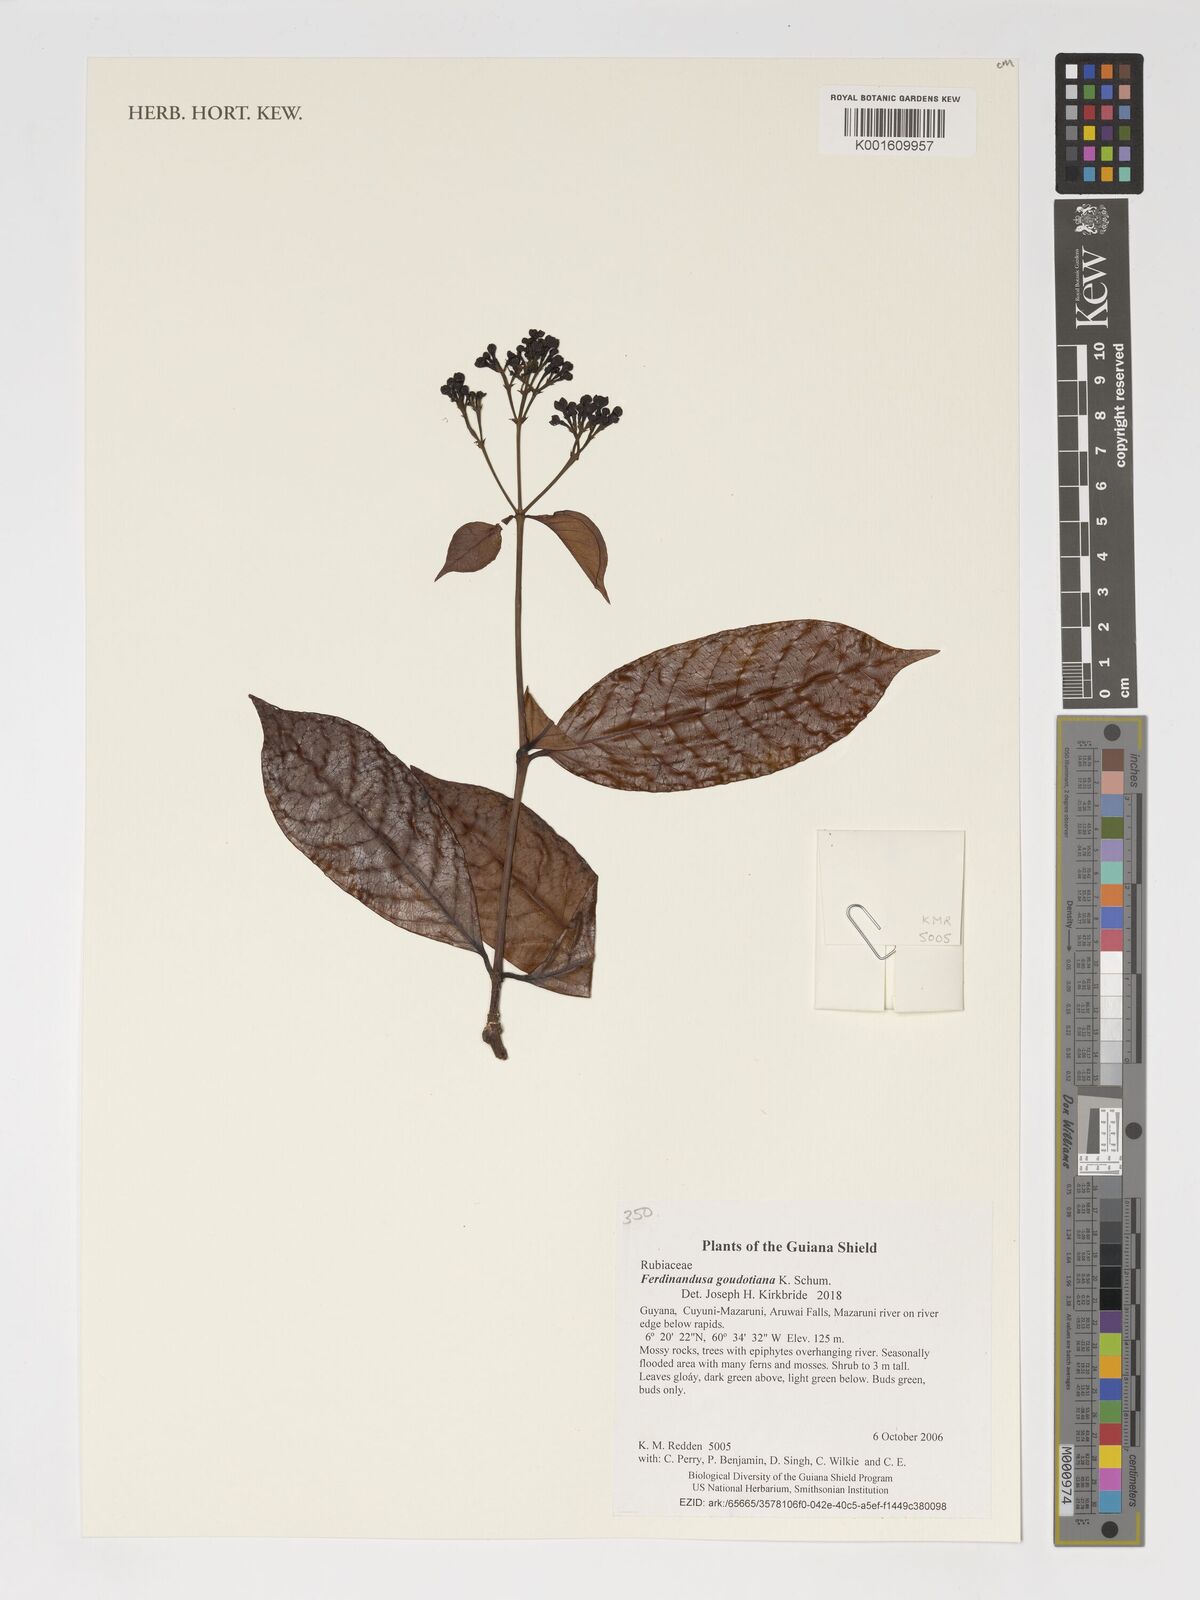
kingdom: Plantae
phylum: Tracheophyta
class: Magnoliopsida
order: Gentianales
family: Rubiaceae
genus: Ferdinandusa
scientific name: Ferdinandusa goudotiana
